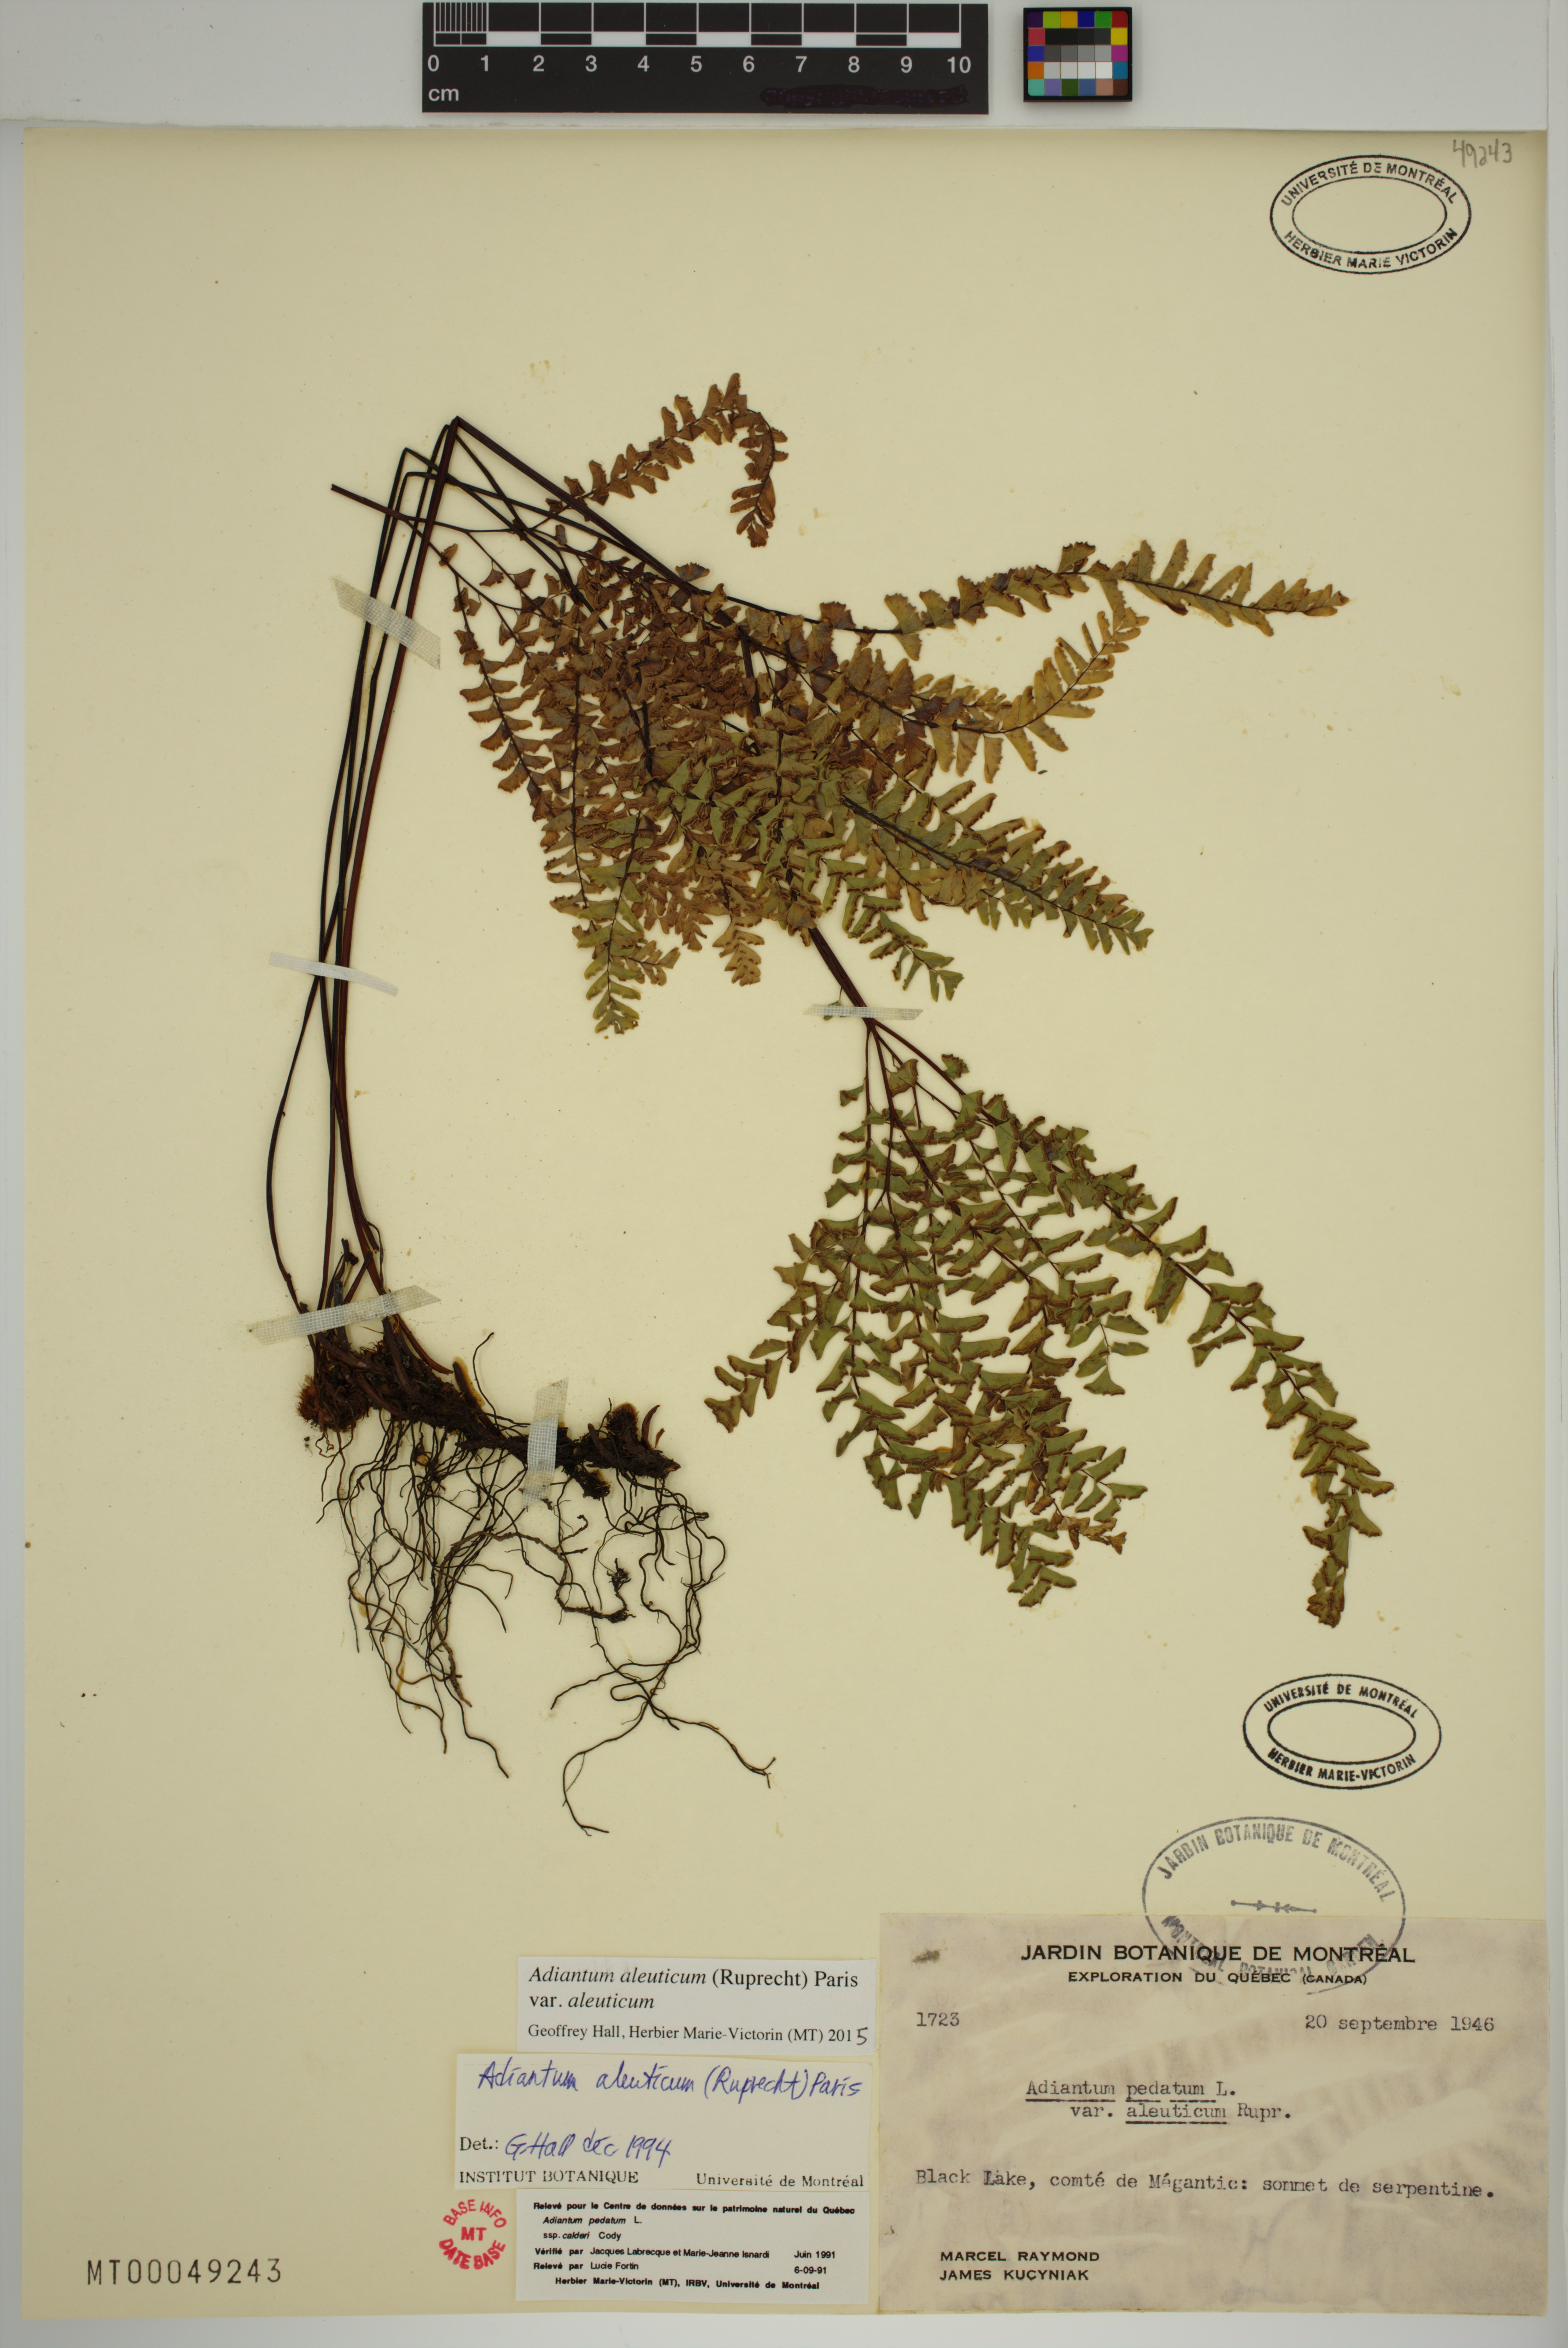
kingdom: Plantae
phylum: Tracheophyta
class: Polypodiopsida
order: Polypodiales
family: Pteridaceae
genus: Adiantum
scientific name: Adiantum aleuticum
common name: Aleutian maidenhair fern
